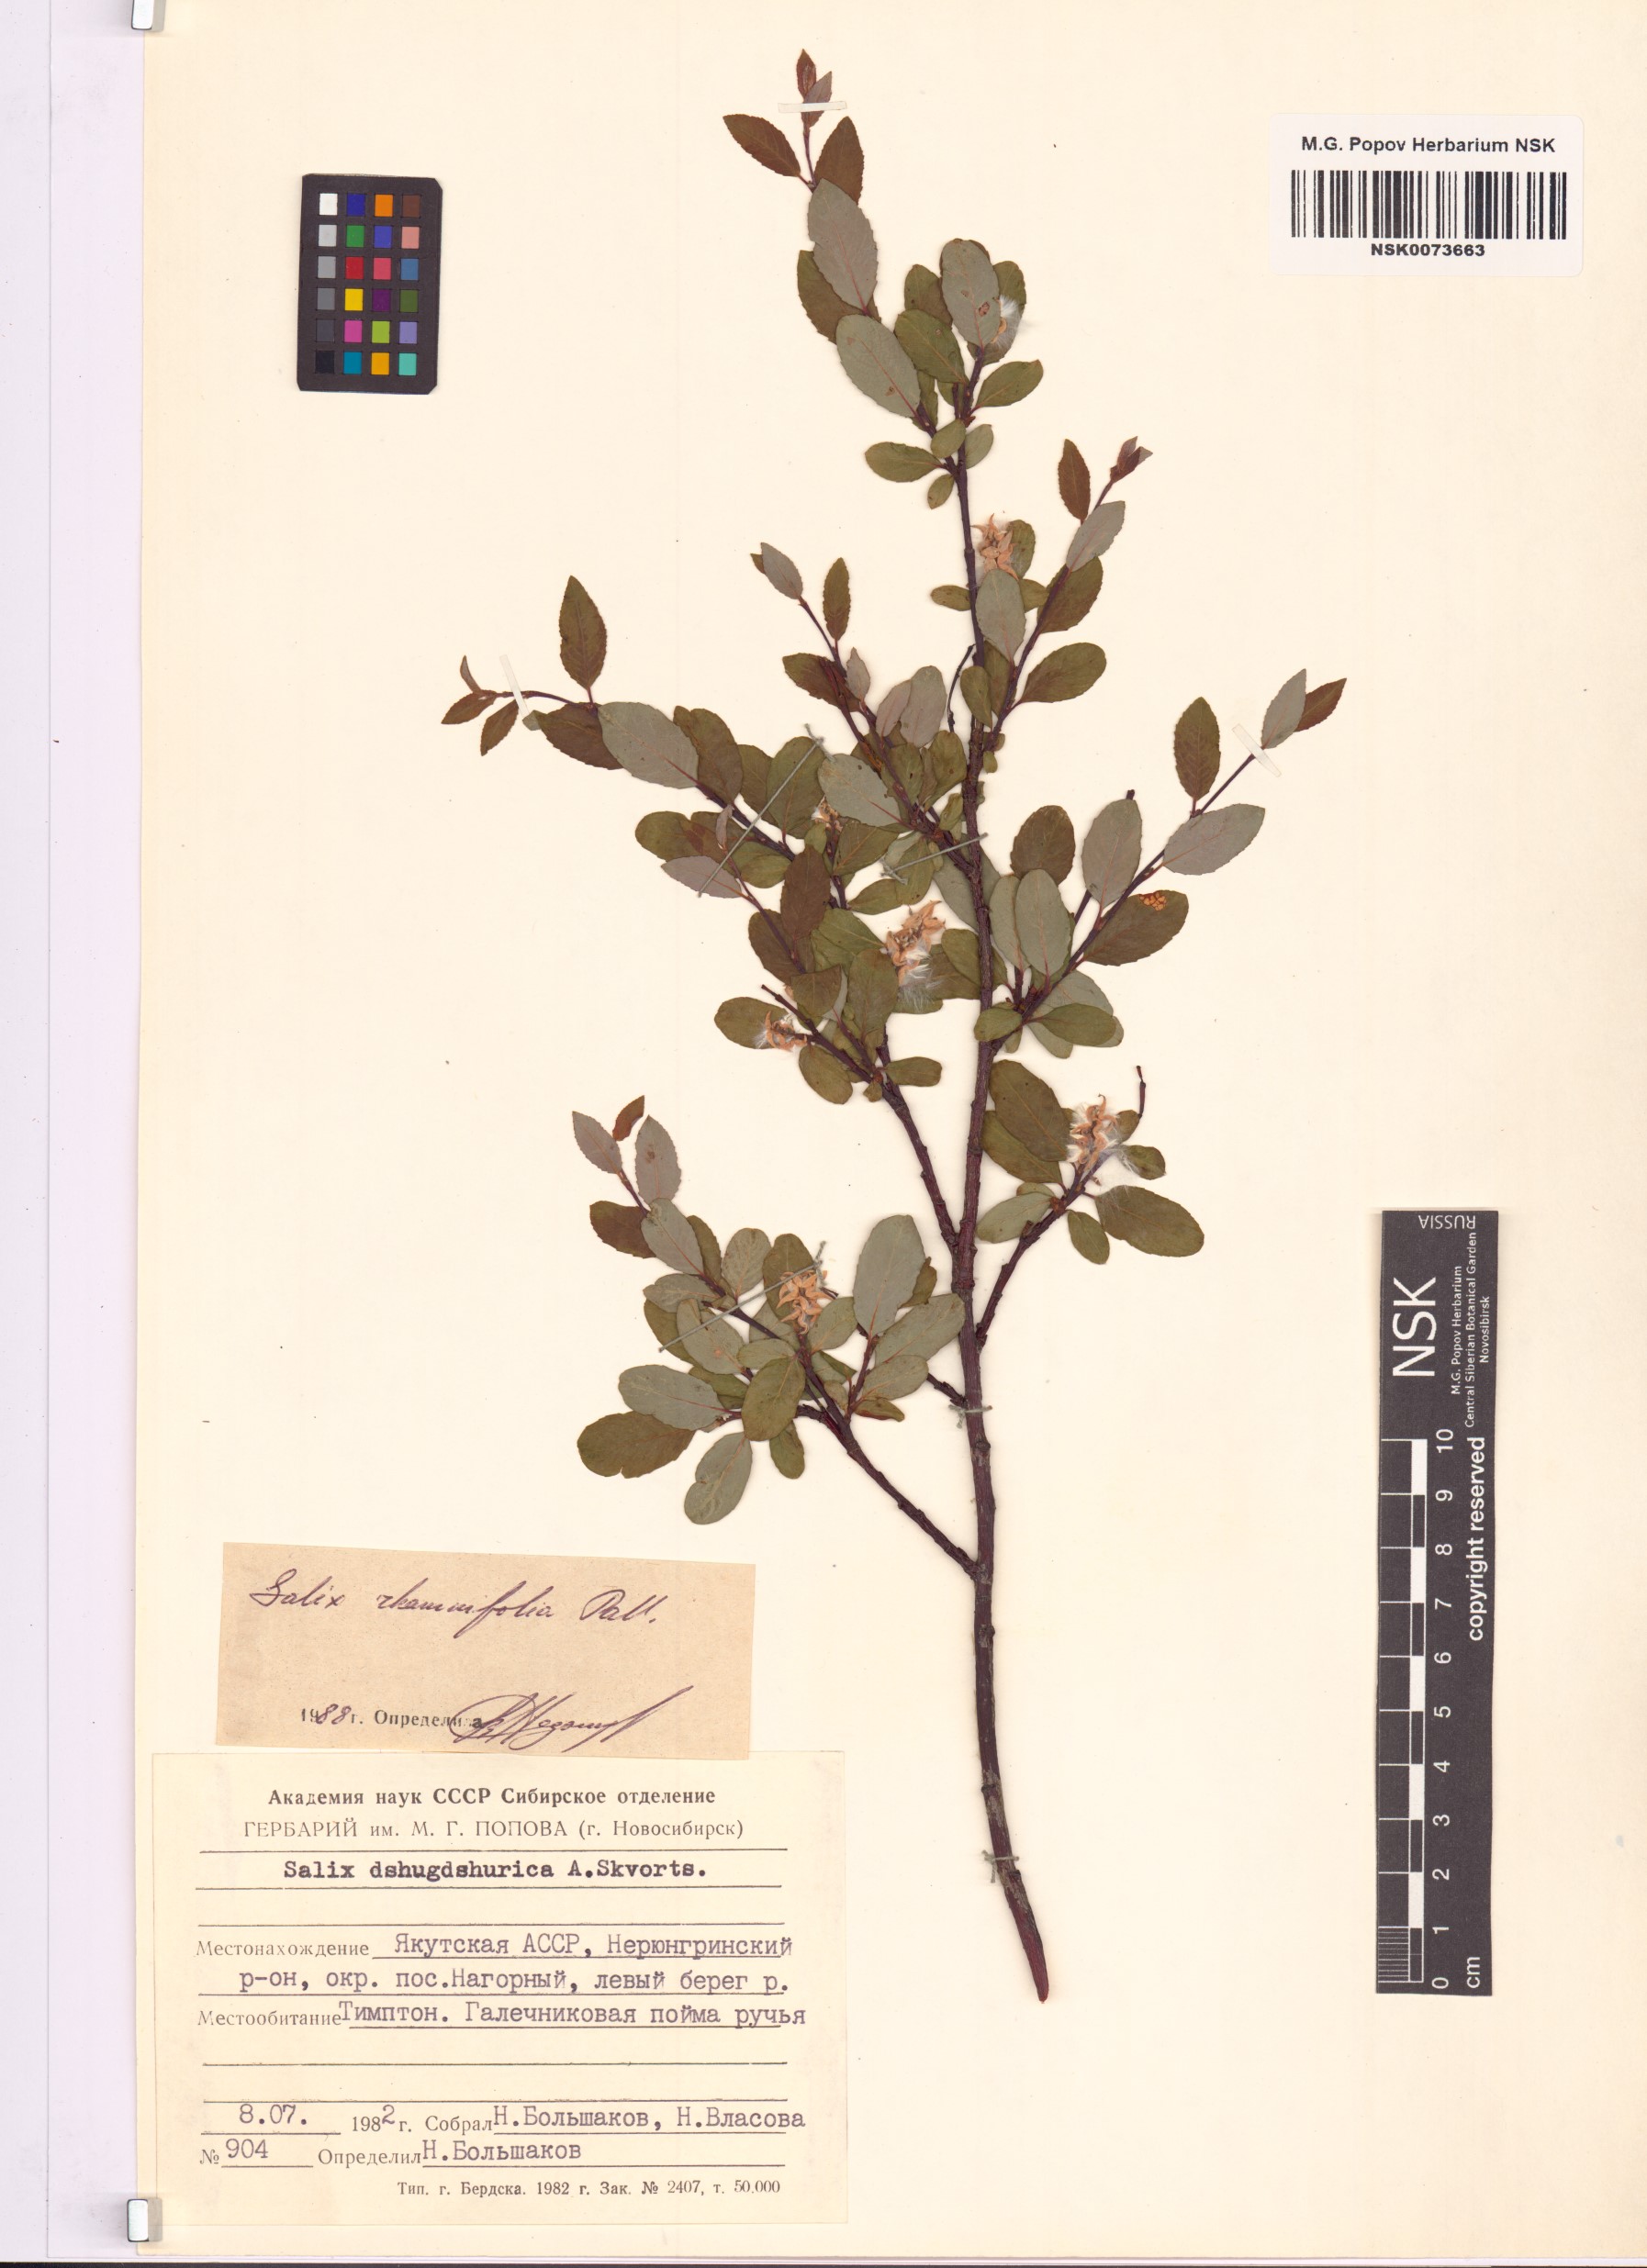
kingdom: Plantae
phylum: Tracheophyta
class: Magnoliopsida
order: Malpighiales
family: Salicaceae
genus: Salix
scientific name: Salix rhamnifolia
